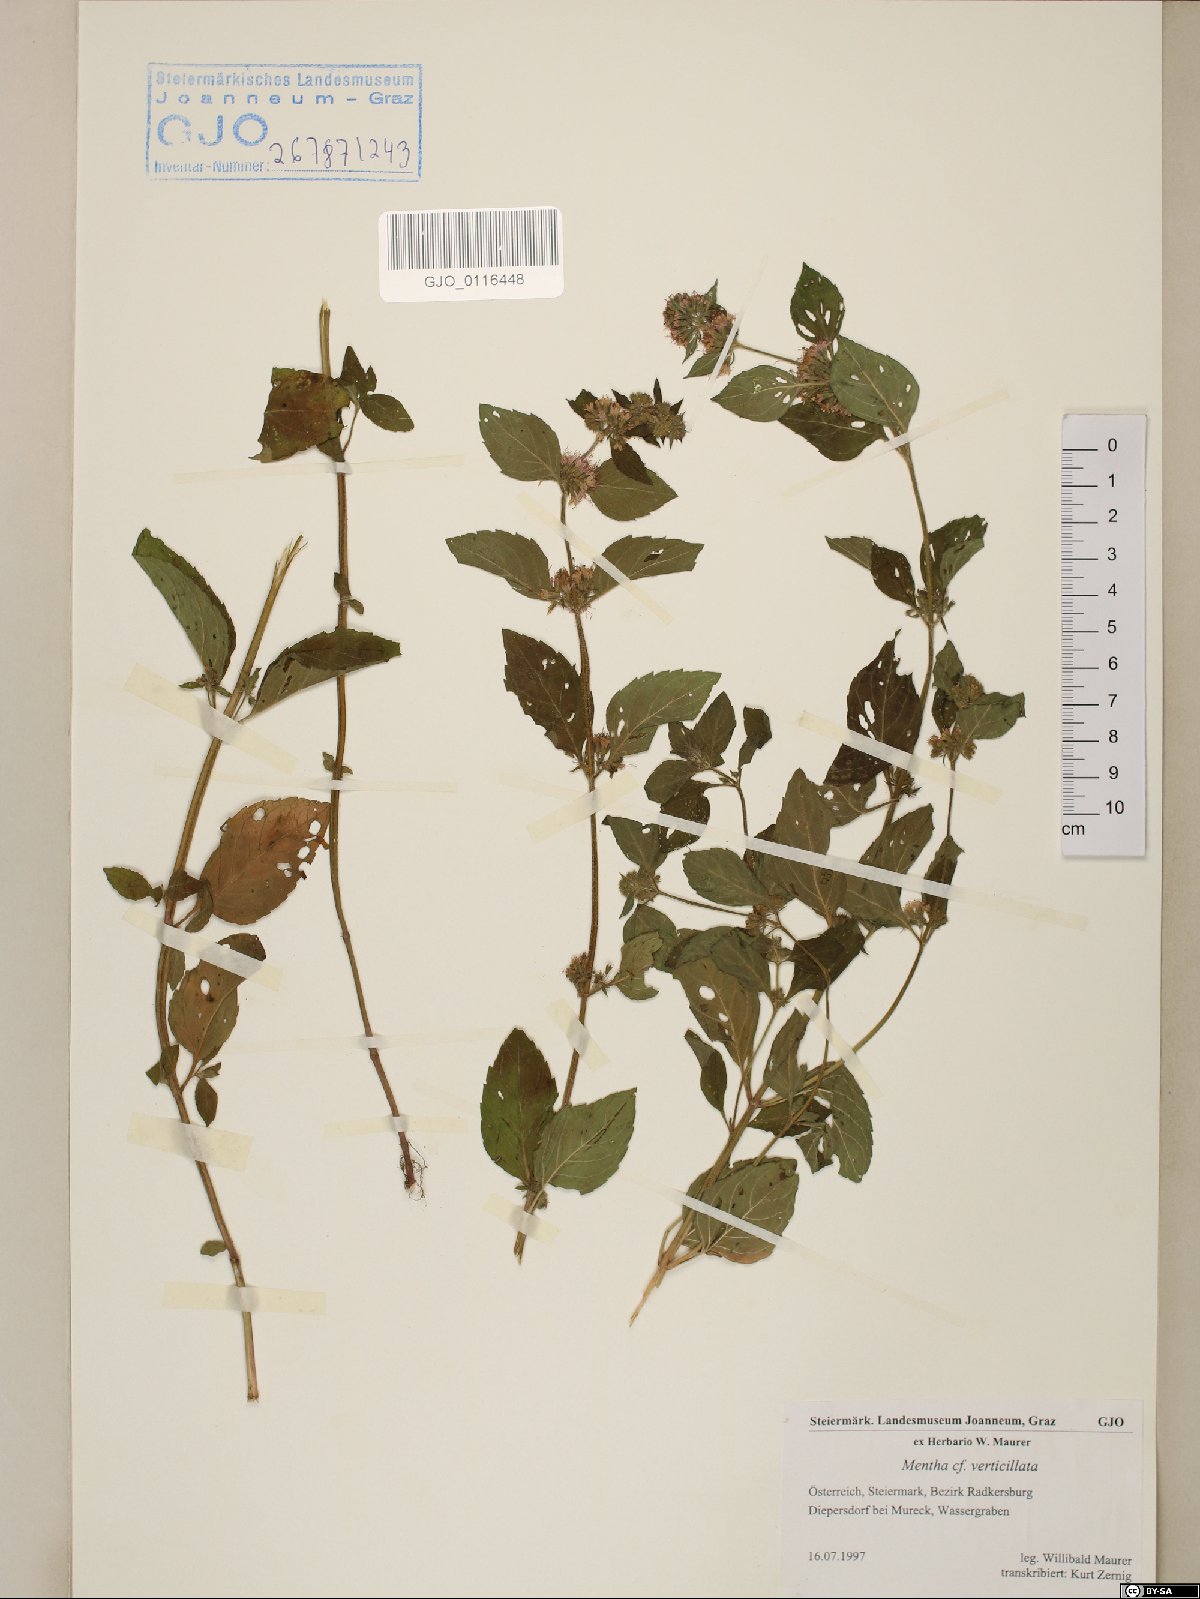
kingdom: Plantae
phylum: Tracheophyta
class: Magnoliopsida
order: Lamiales
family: Lamiaceae
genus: Mentha
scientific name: Mentha verticillata
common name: Mint
